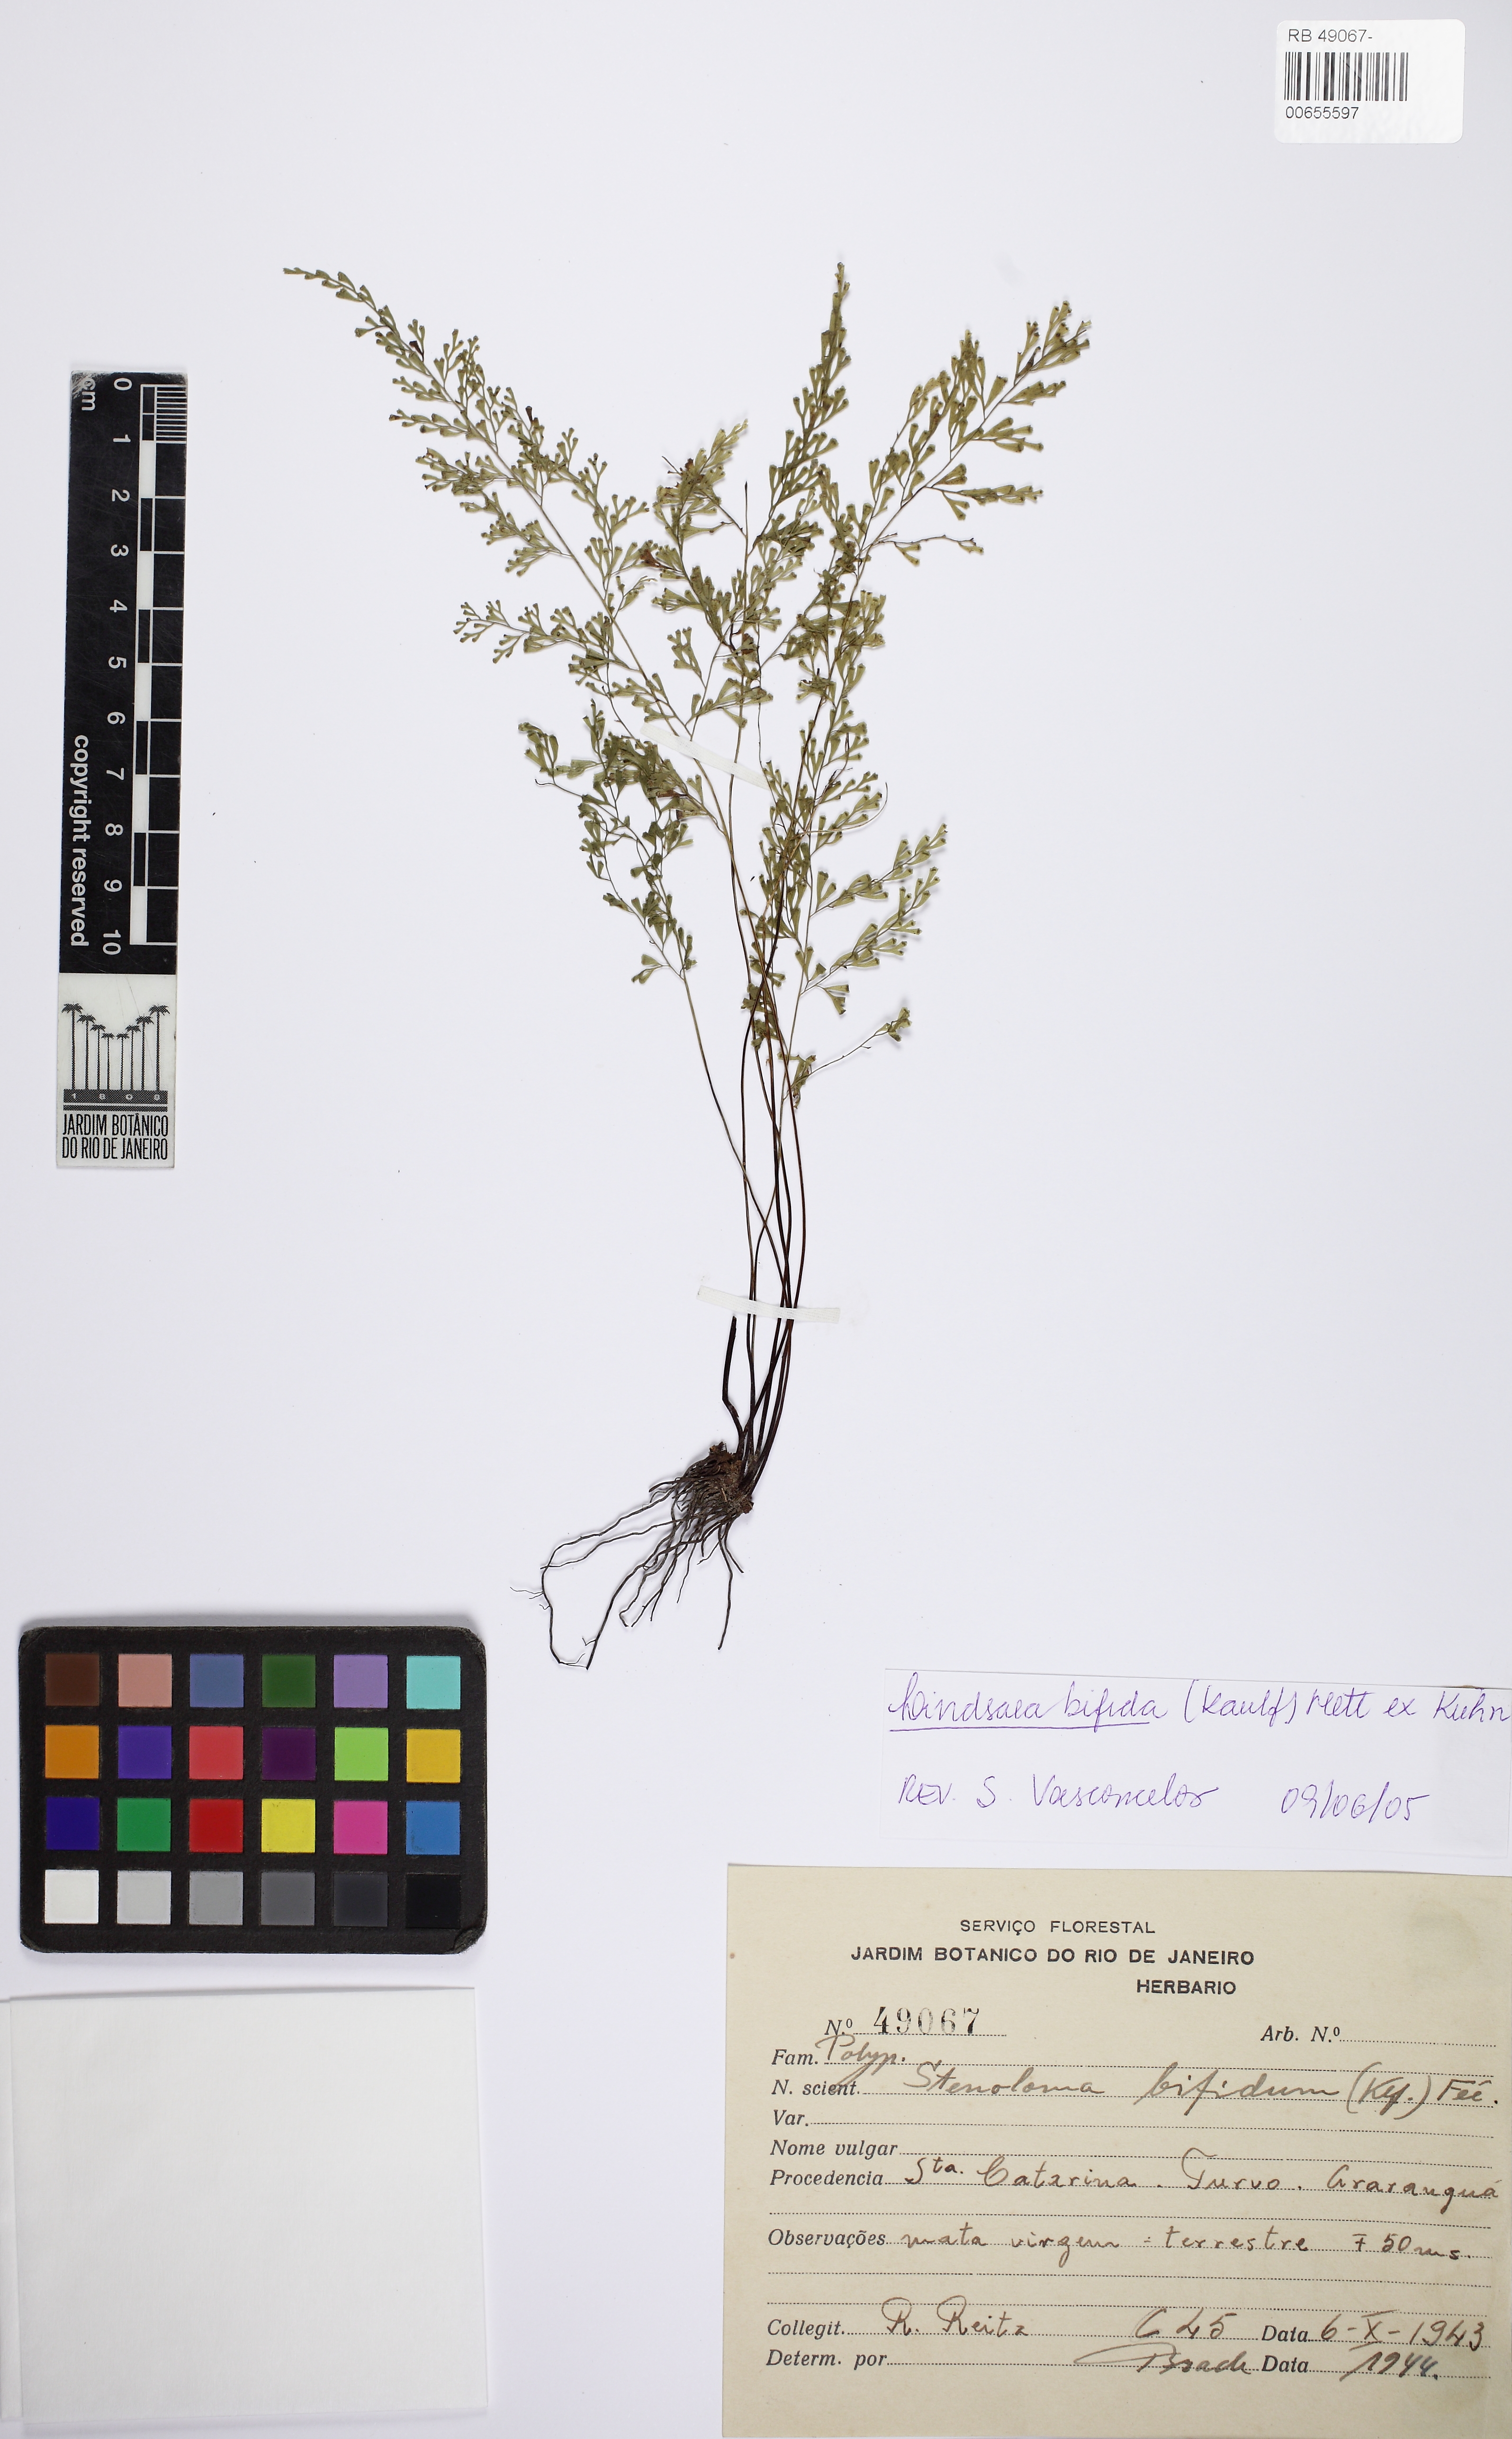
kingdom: Plantae
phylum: Tracheophyta
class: Polypodiopsida
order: Polypodiales
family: Lindsaeaceae
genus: Lindsaea
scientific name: Lindsaea bifida
